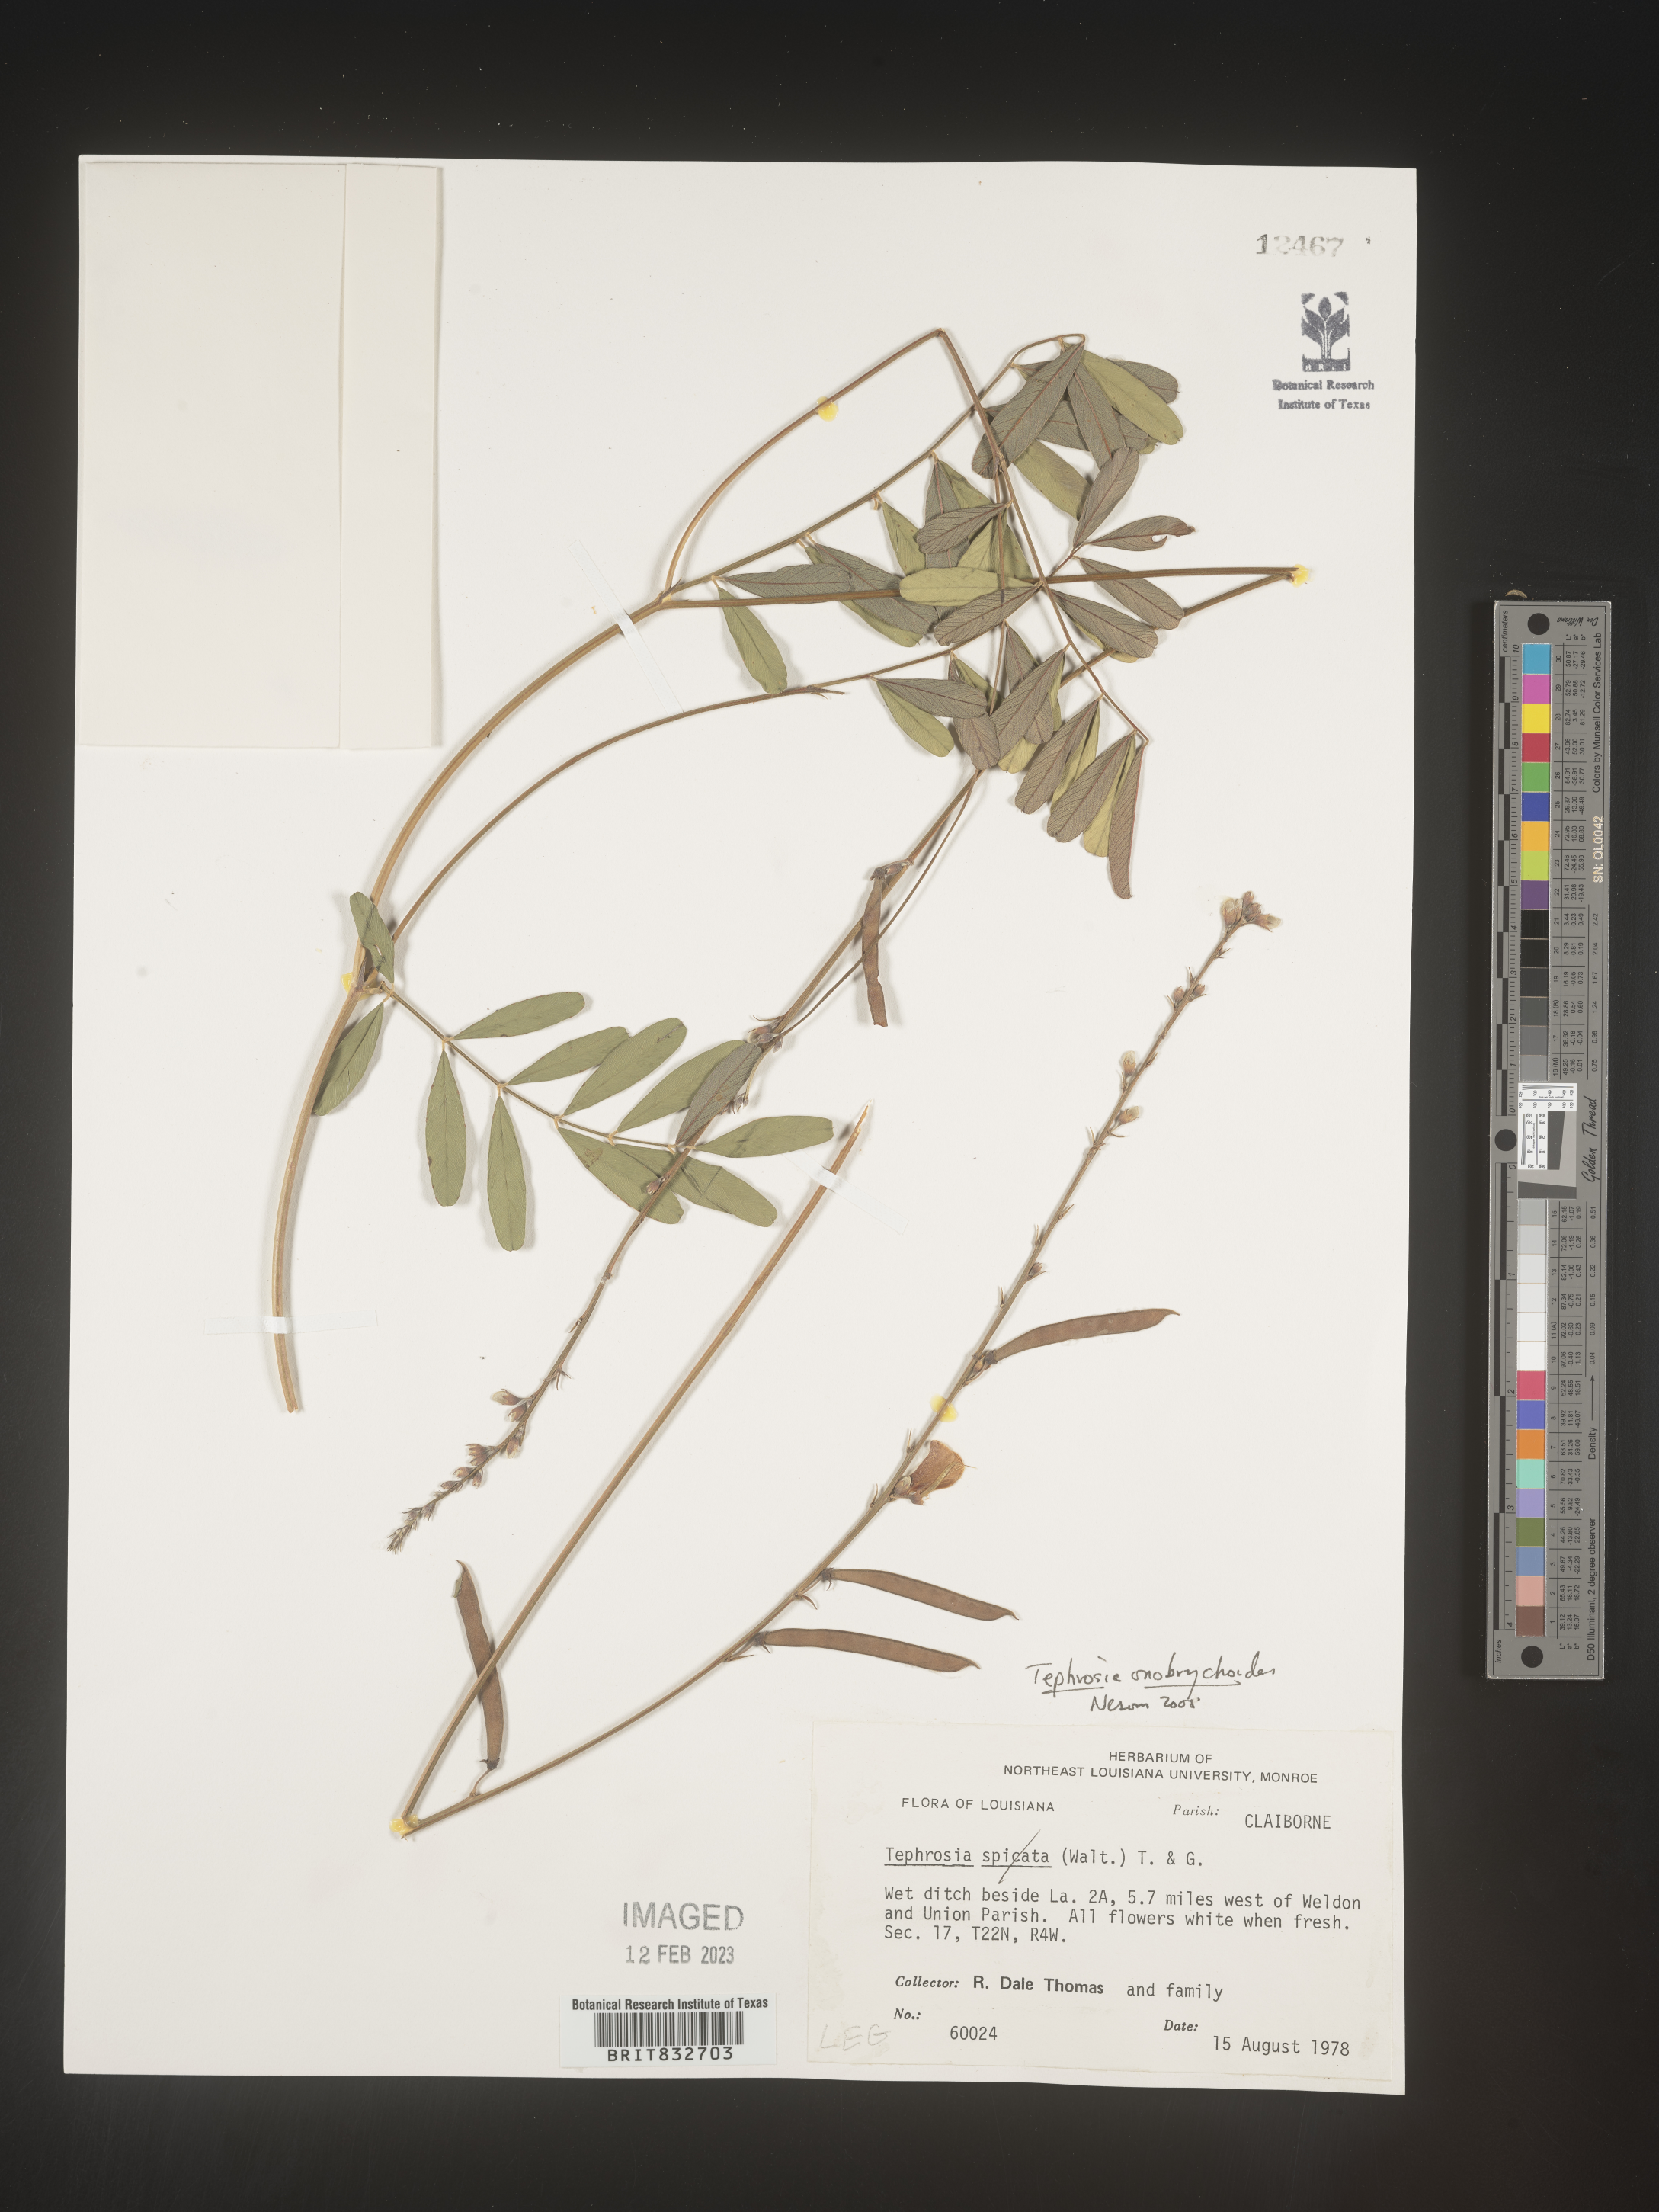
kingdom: Plantae
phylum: Tracheophyta
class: Magnoliopsida
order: Fabales
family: Fabaceae
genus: Tephrosia
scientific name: Tephrosia onobrychoides
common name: Multi-bloom hoary-pea
